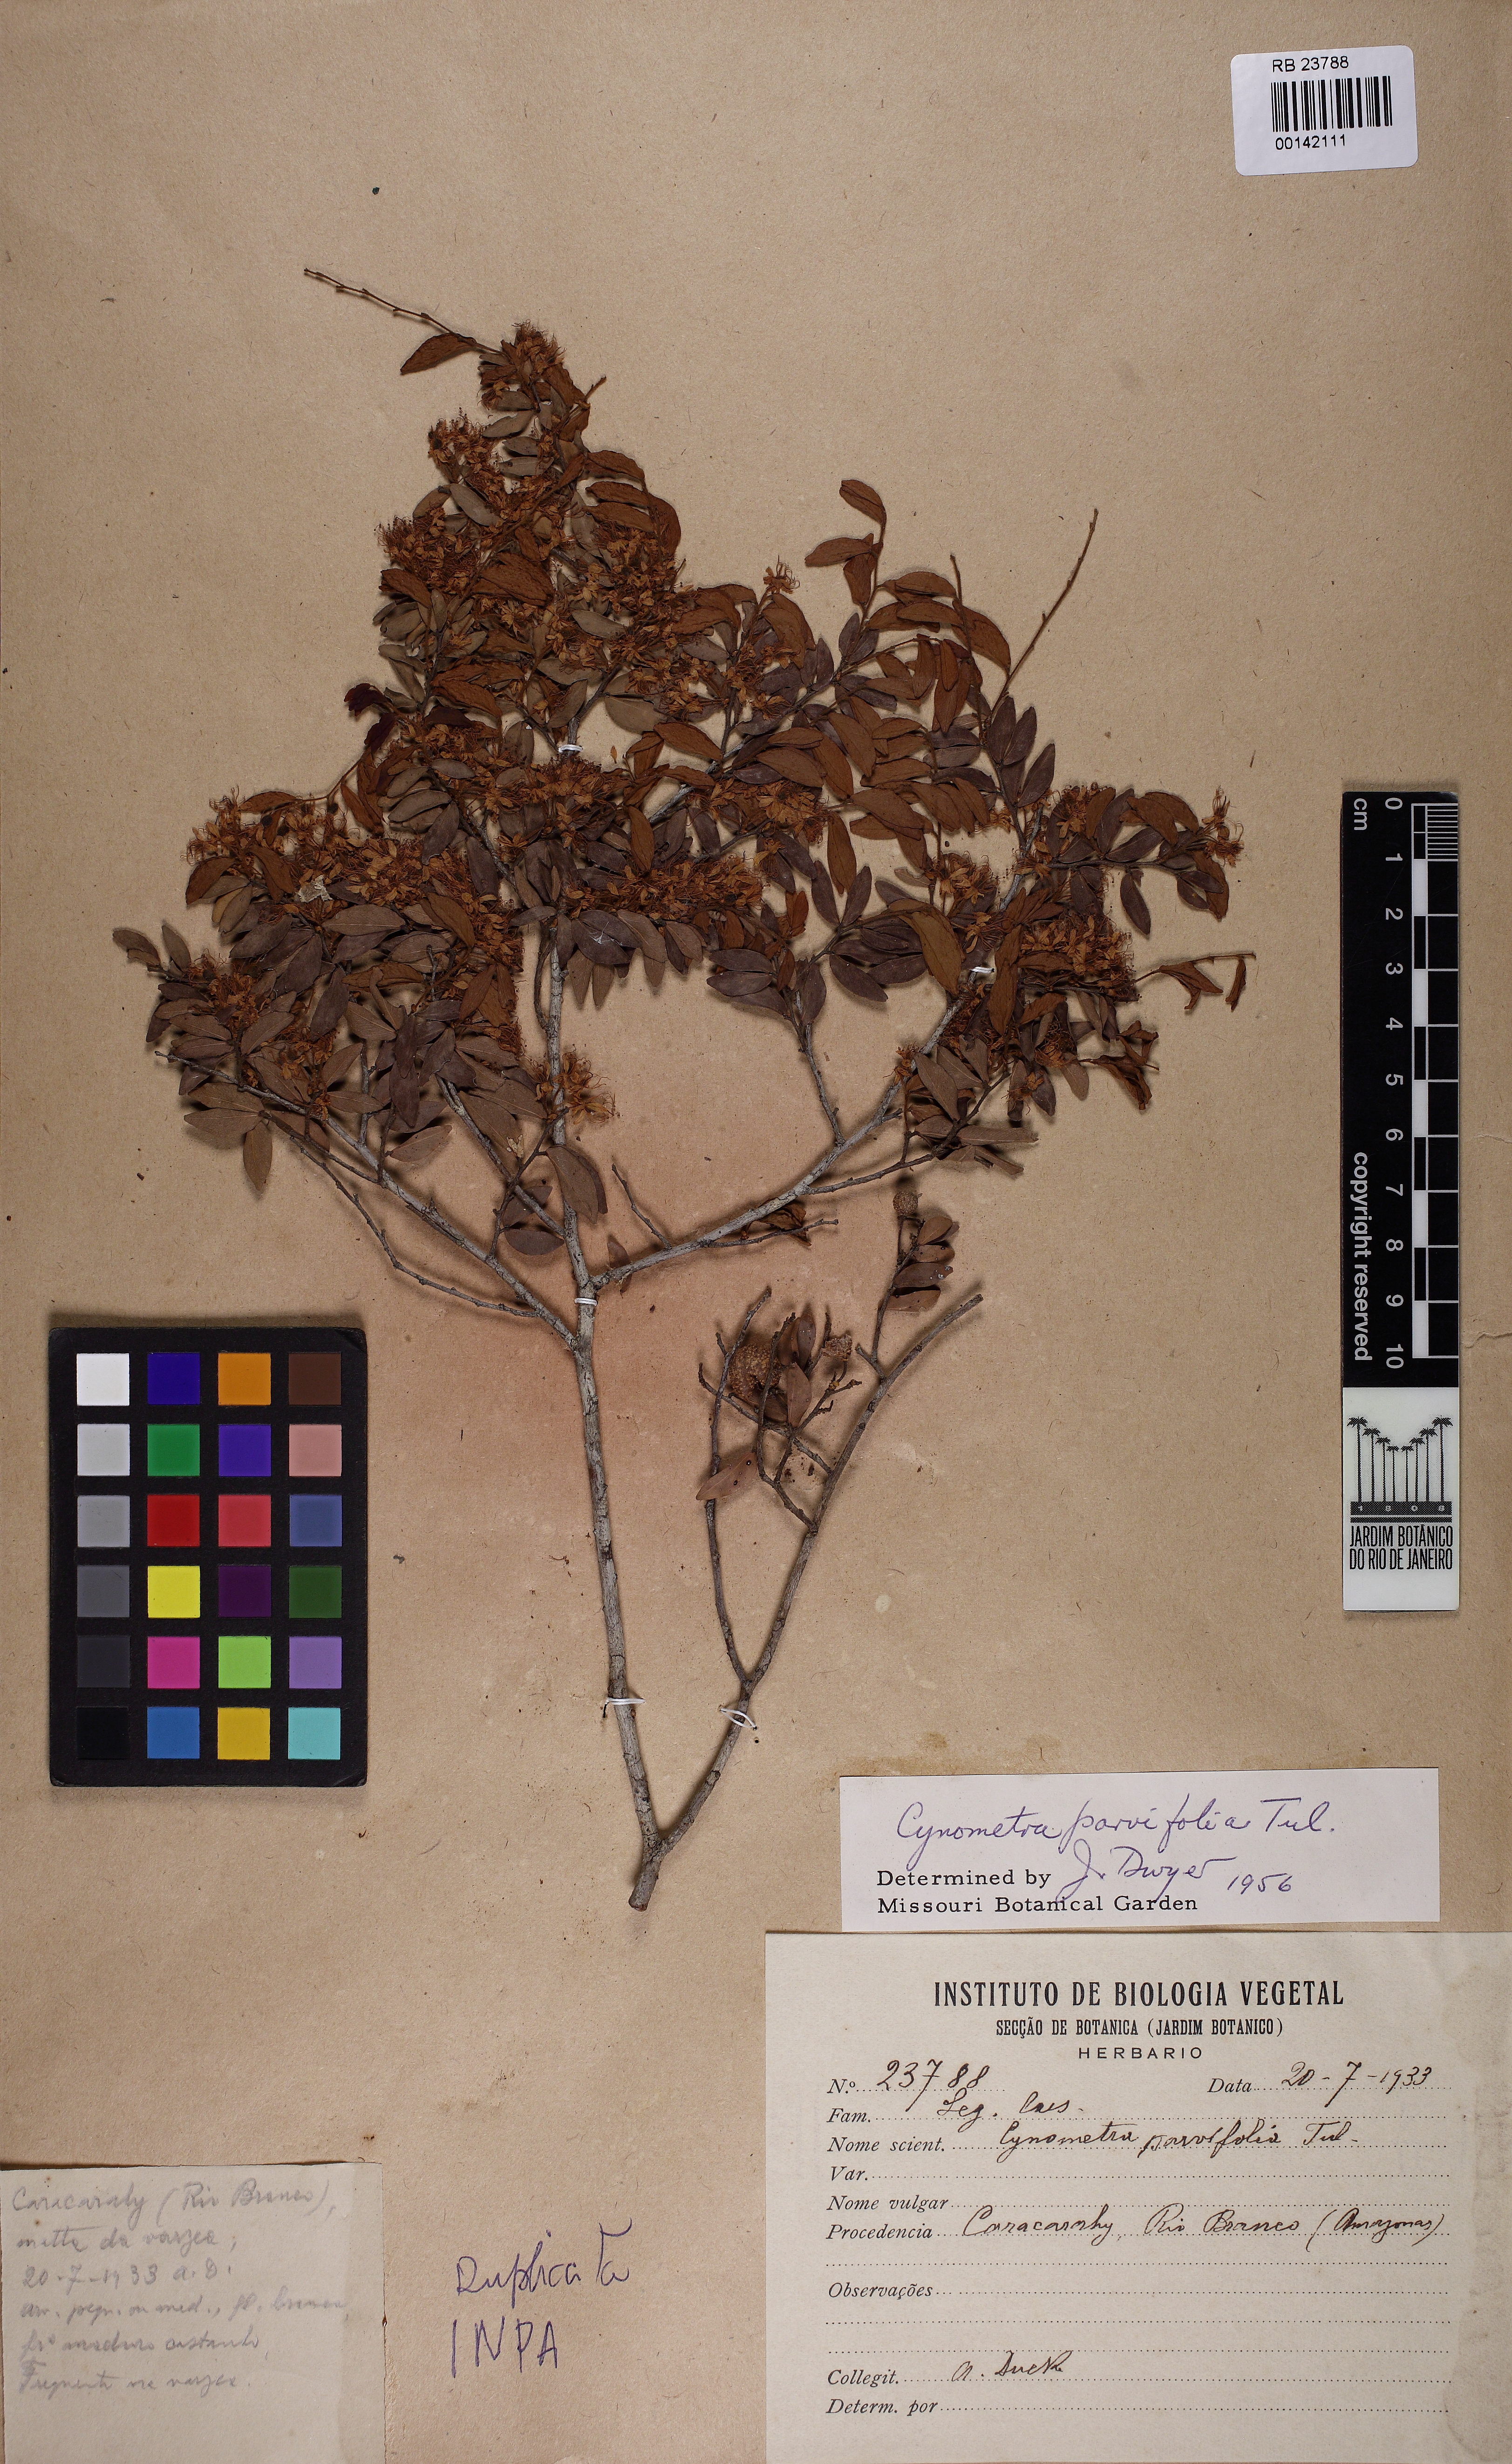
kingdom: Plantae
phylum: Tracheophyta
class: Magnoliopsida
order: Fabales
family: Fabaceae
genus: Cynometra
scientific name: Cynometra parvifolia
